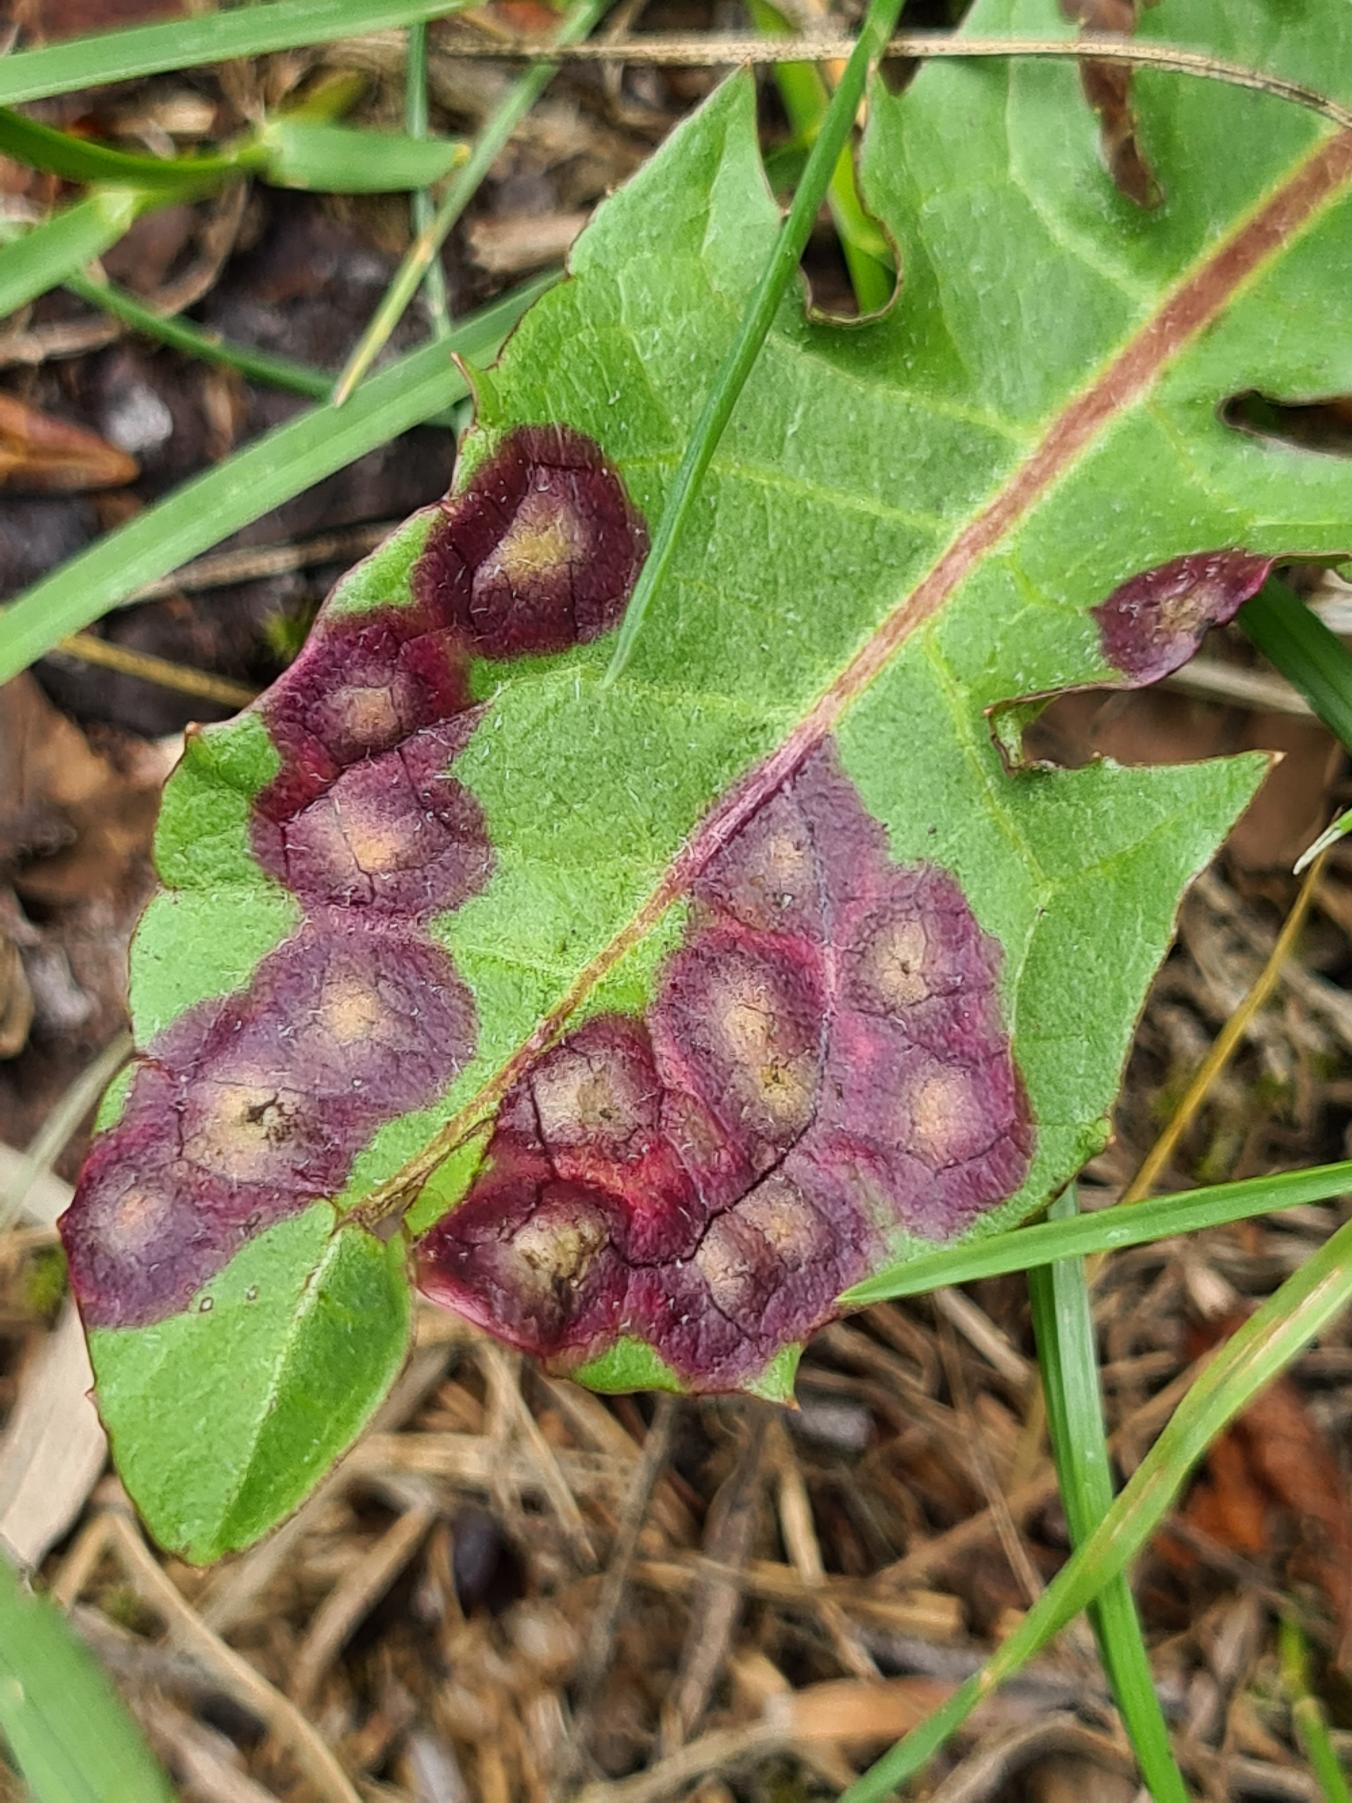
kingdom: Animalia
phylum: Arthropoda
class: Insecta
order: Diptera
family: Cecidomyiidae
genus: Cystiphora
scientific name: Cystiphora taraxaci
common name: Mælkebøttegalmyg
